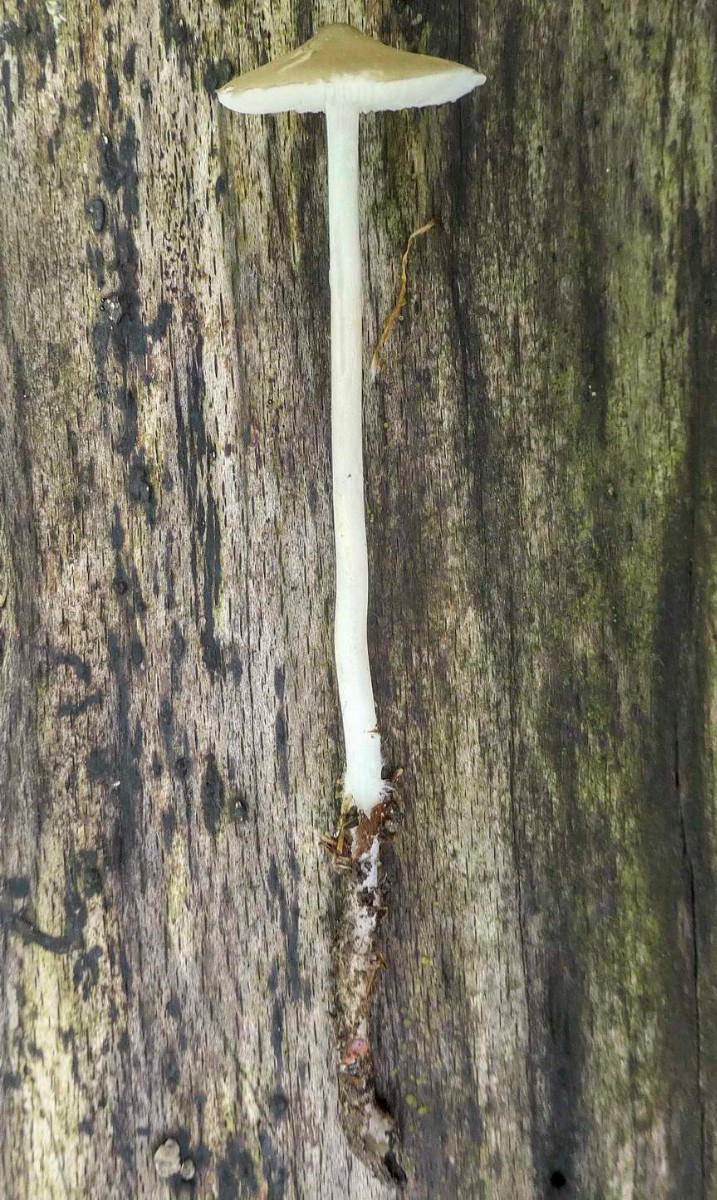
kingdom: Fungi
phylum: Basidiomycota
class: Agaricomycetes
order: Agaricales
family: Porotheleaceae
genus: Hydropodia
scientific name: Hydropodia subalpina
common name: vår-fnugfod
